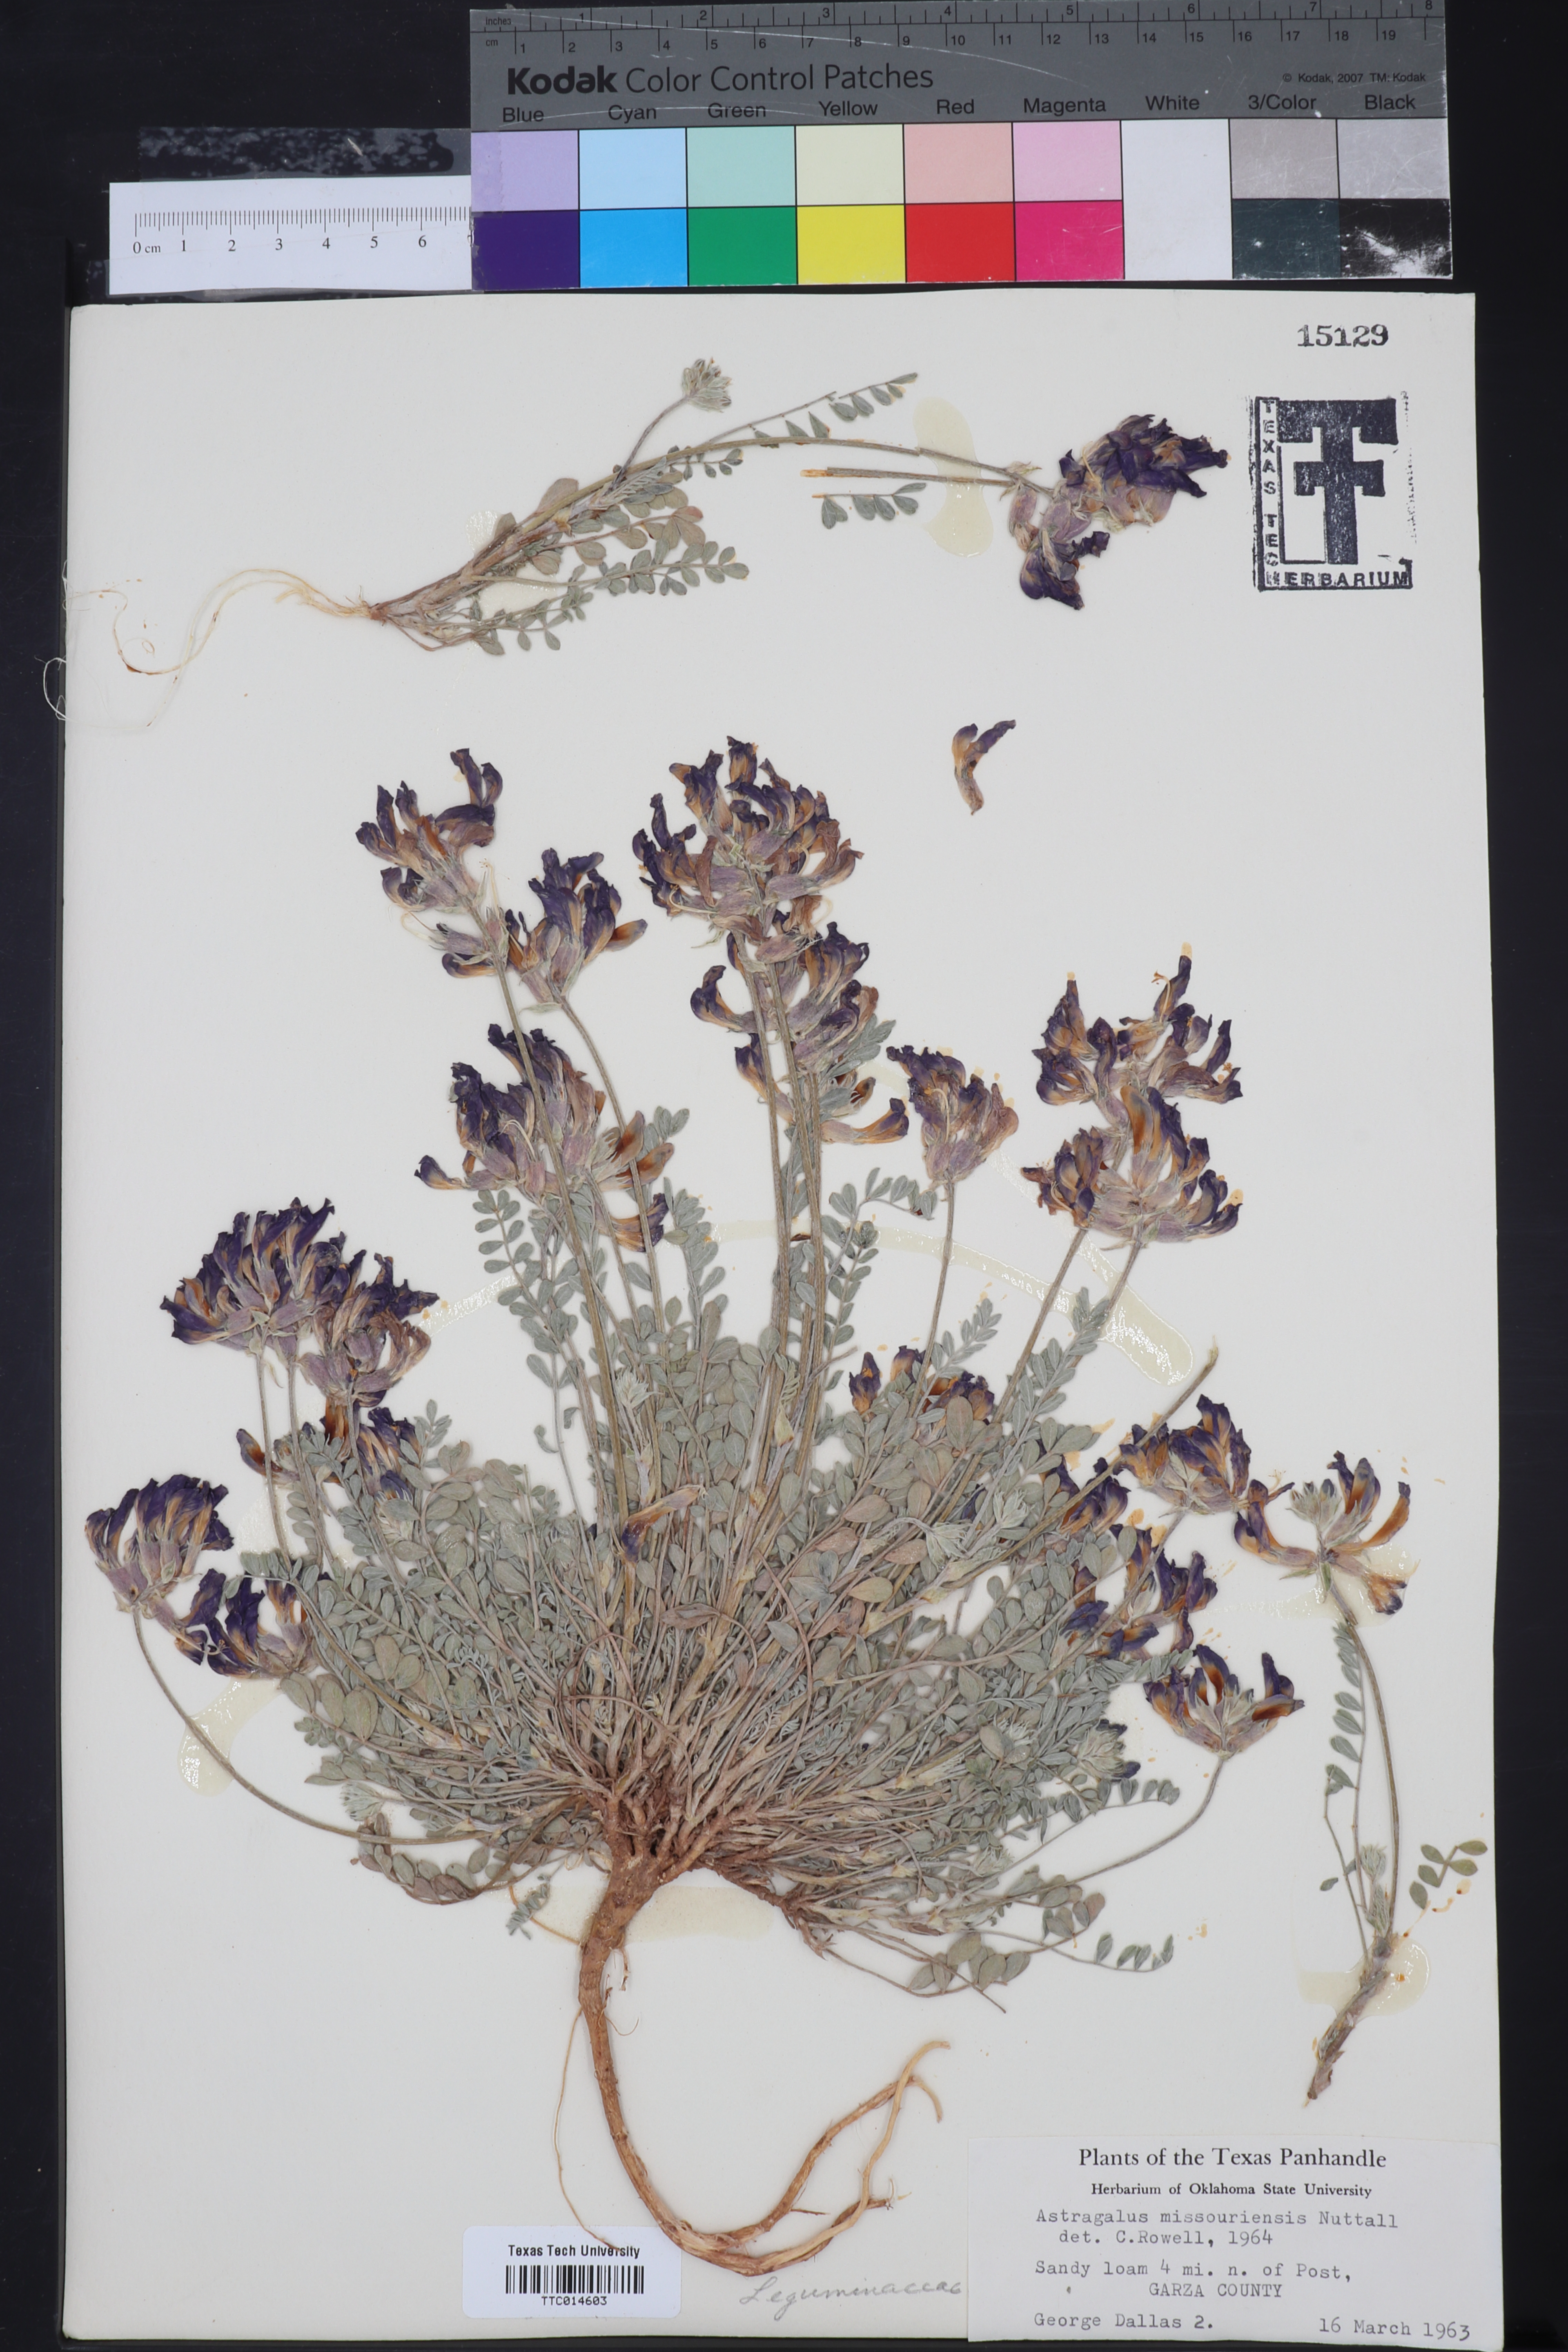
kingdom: Plantae
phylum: Tracheophyta
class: Magnoliopsida
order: Fabales
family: Fabaceae
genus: Astragalus
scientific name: Astragalus missouriensis
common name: Missouri milk-vetch
